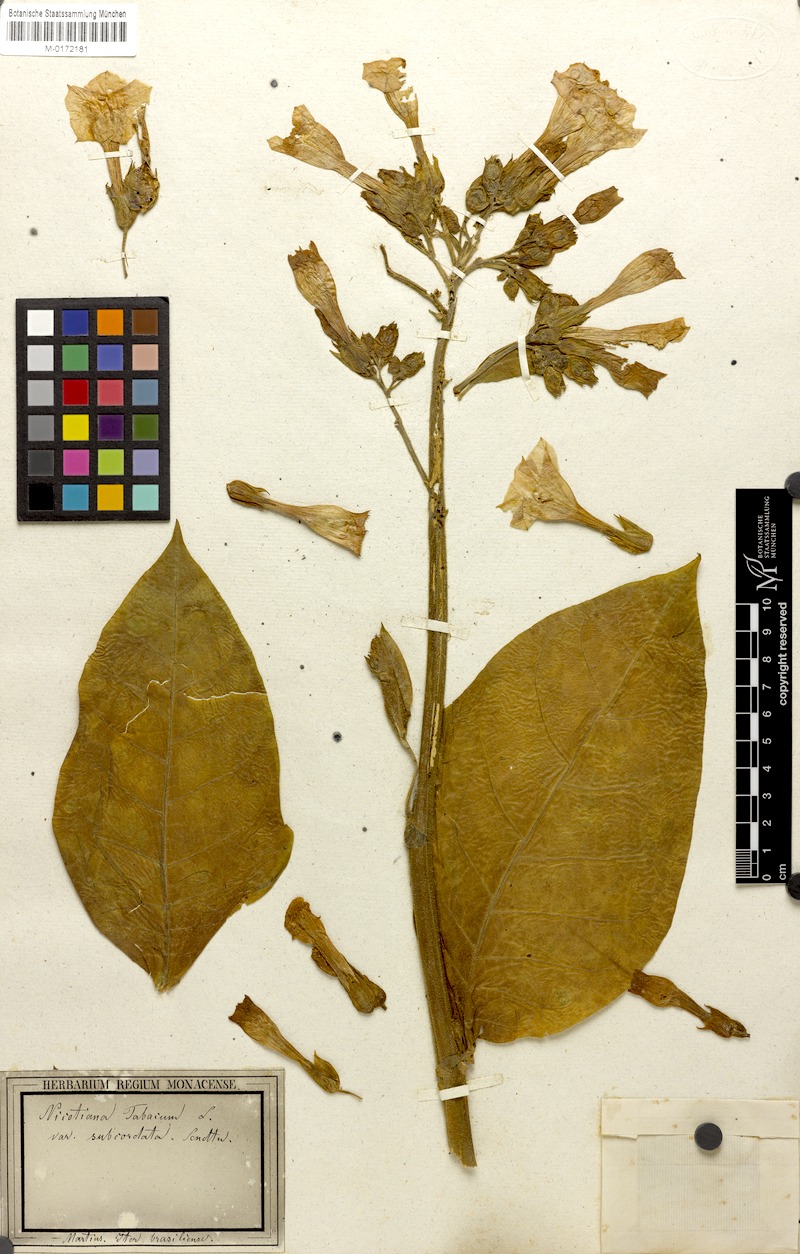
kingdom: Plantae
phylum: Tracheophyta
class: Magnoliopsida
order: Solanales
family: Solanaceae
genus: Nicotiana
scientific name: Nicotiana tabacum
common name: Tobacco
